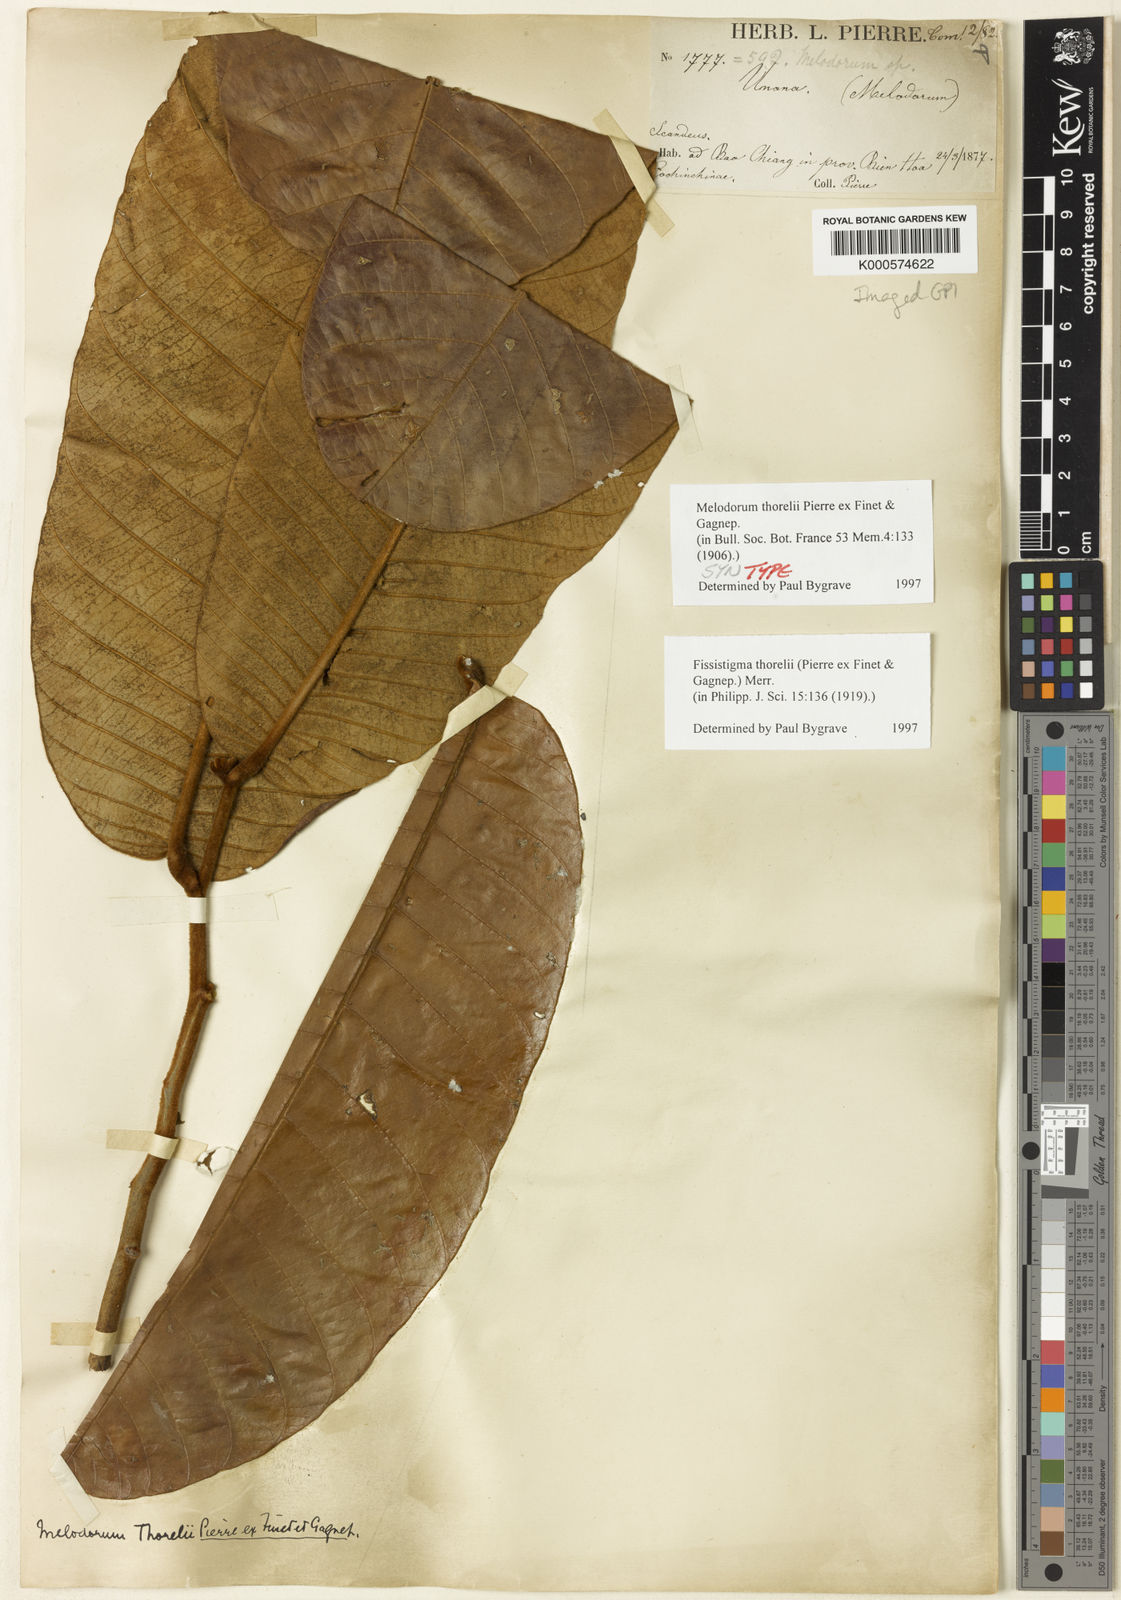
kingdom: Plantae
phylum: Tracheophyta
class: Magnoliopsida
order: Magnoliales
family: Annonaceae
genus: Fissistigma
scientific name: Fissistigma thorelii
